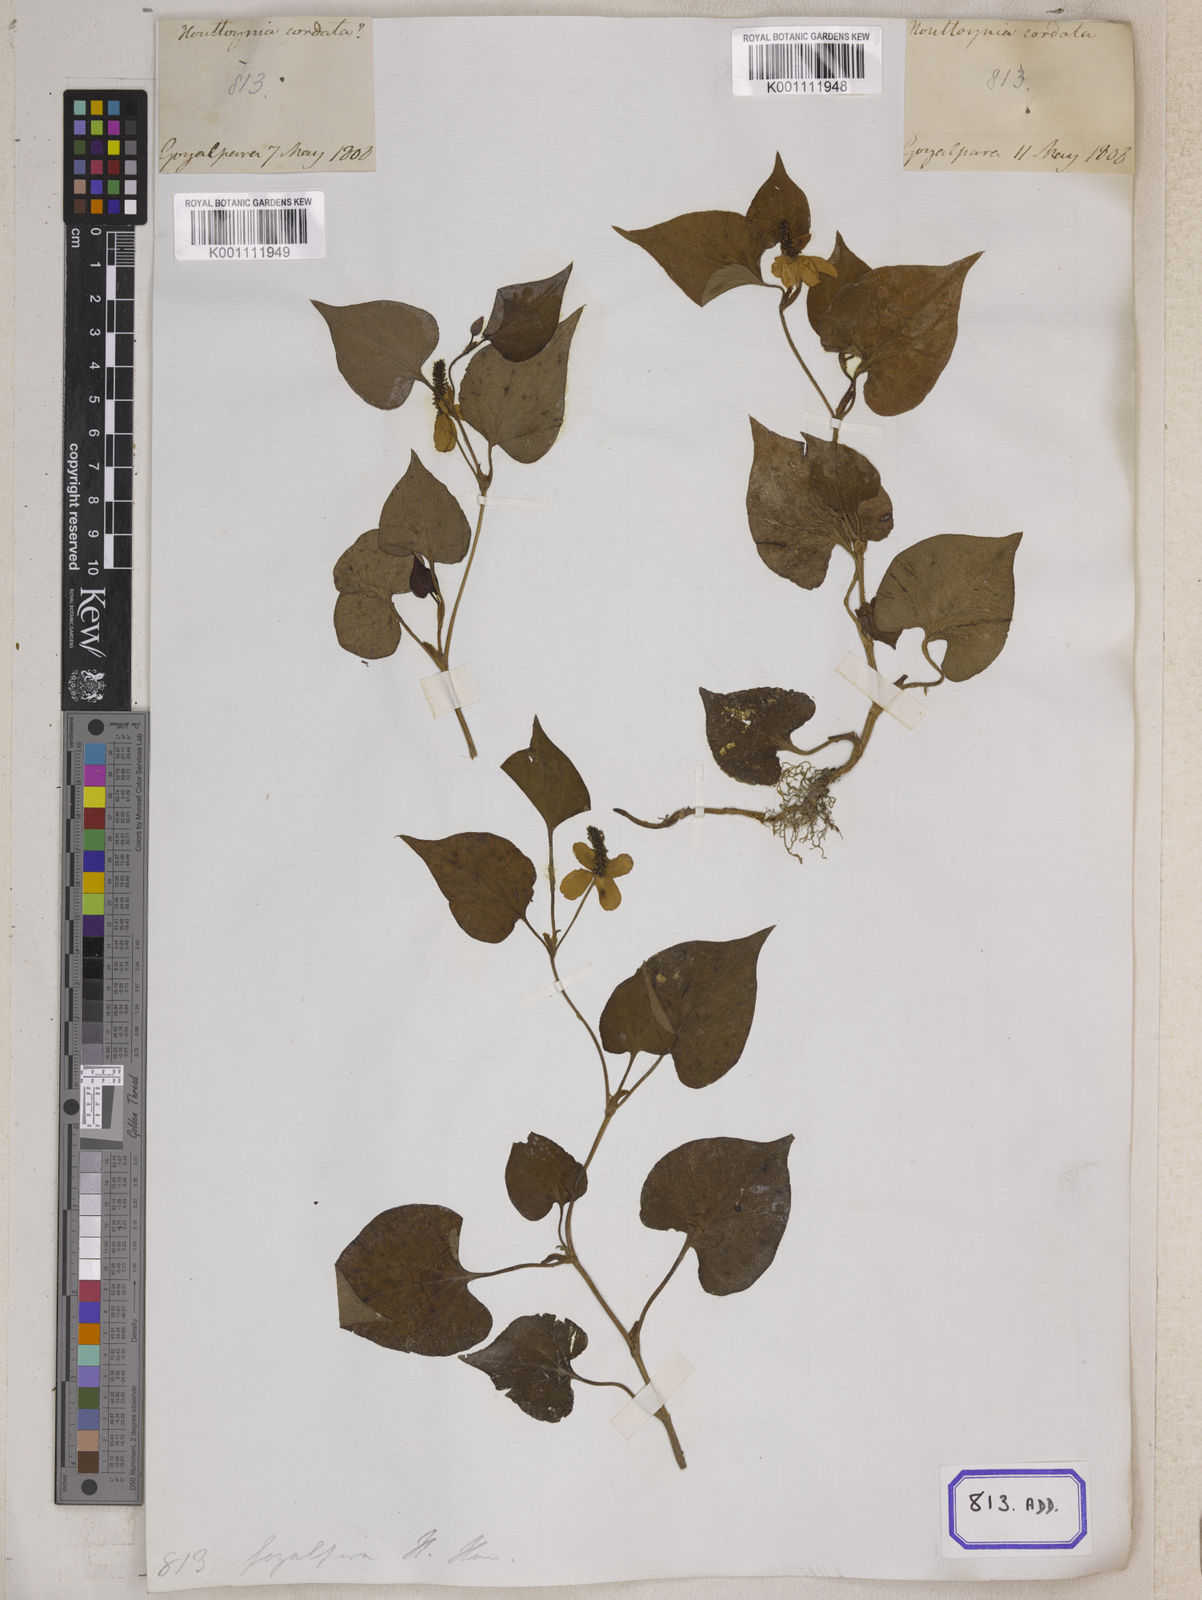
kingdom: Plantae
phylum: Tracheophyta
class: Magnoliopsida
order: Piperales
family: Saururaceae
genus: Houttuynia
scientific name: Houttuynia cordata
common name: Chameleon
